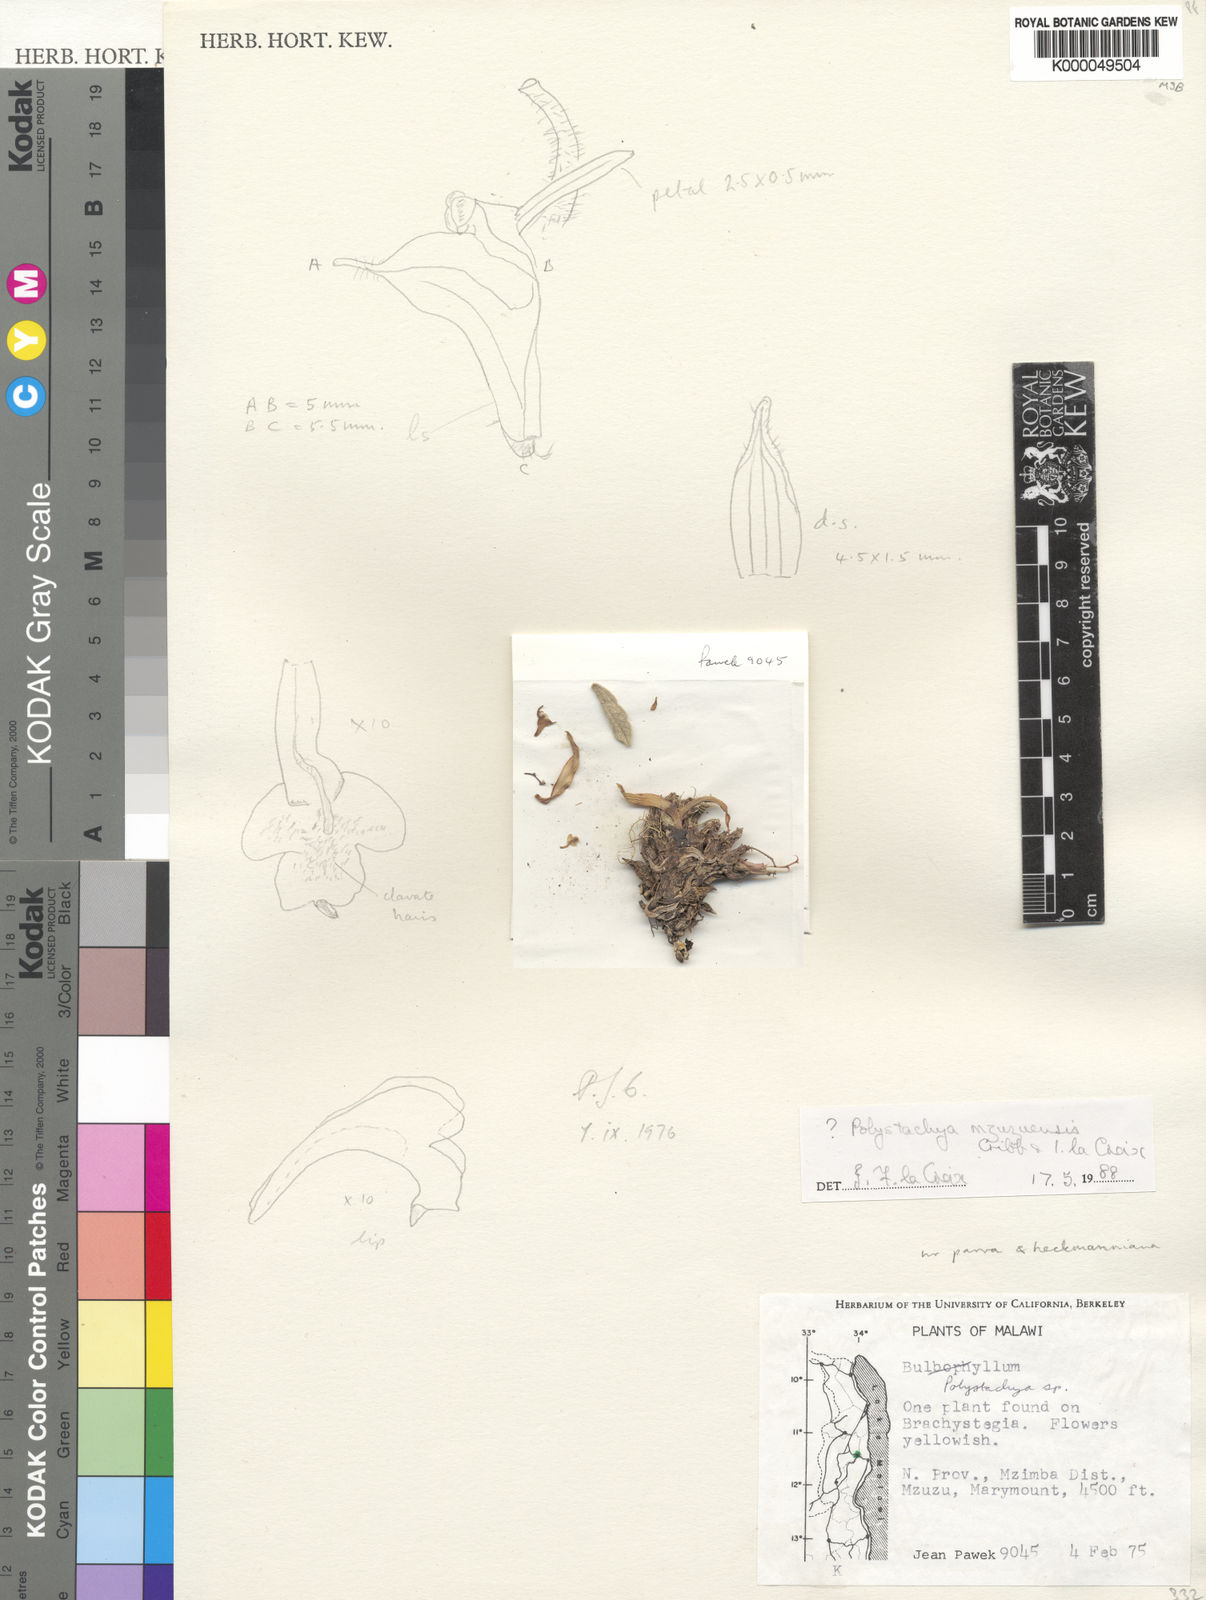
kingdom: Plantae
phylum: Tracheophyta
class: Liliopsida
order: Asparagales
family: Orchidaceae
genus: Polystachya
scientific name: Polystachya mzuzuensis
